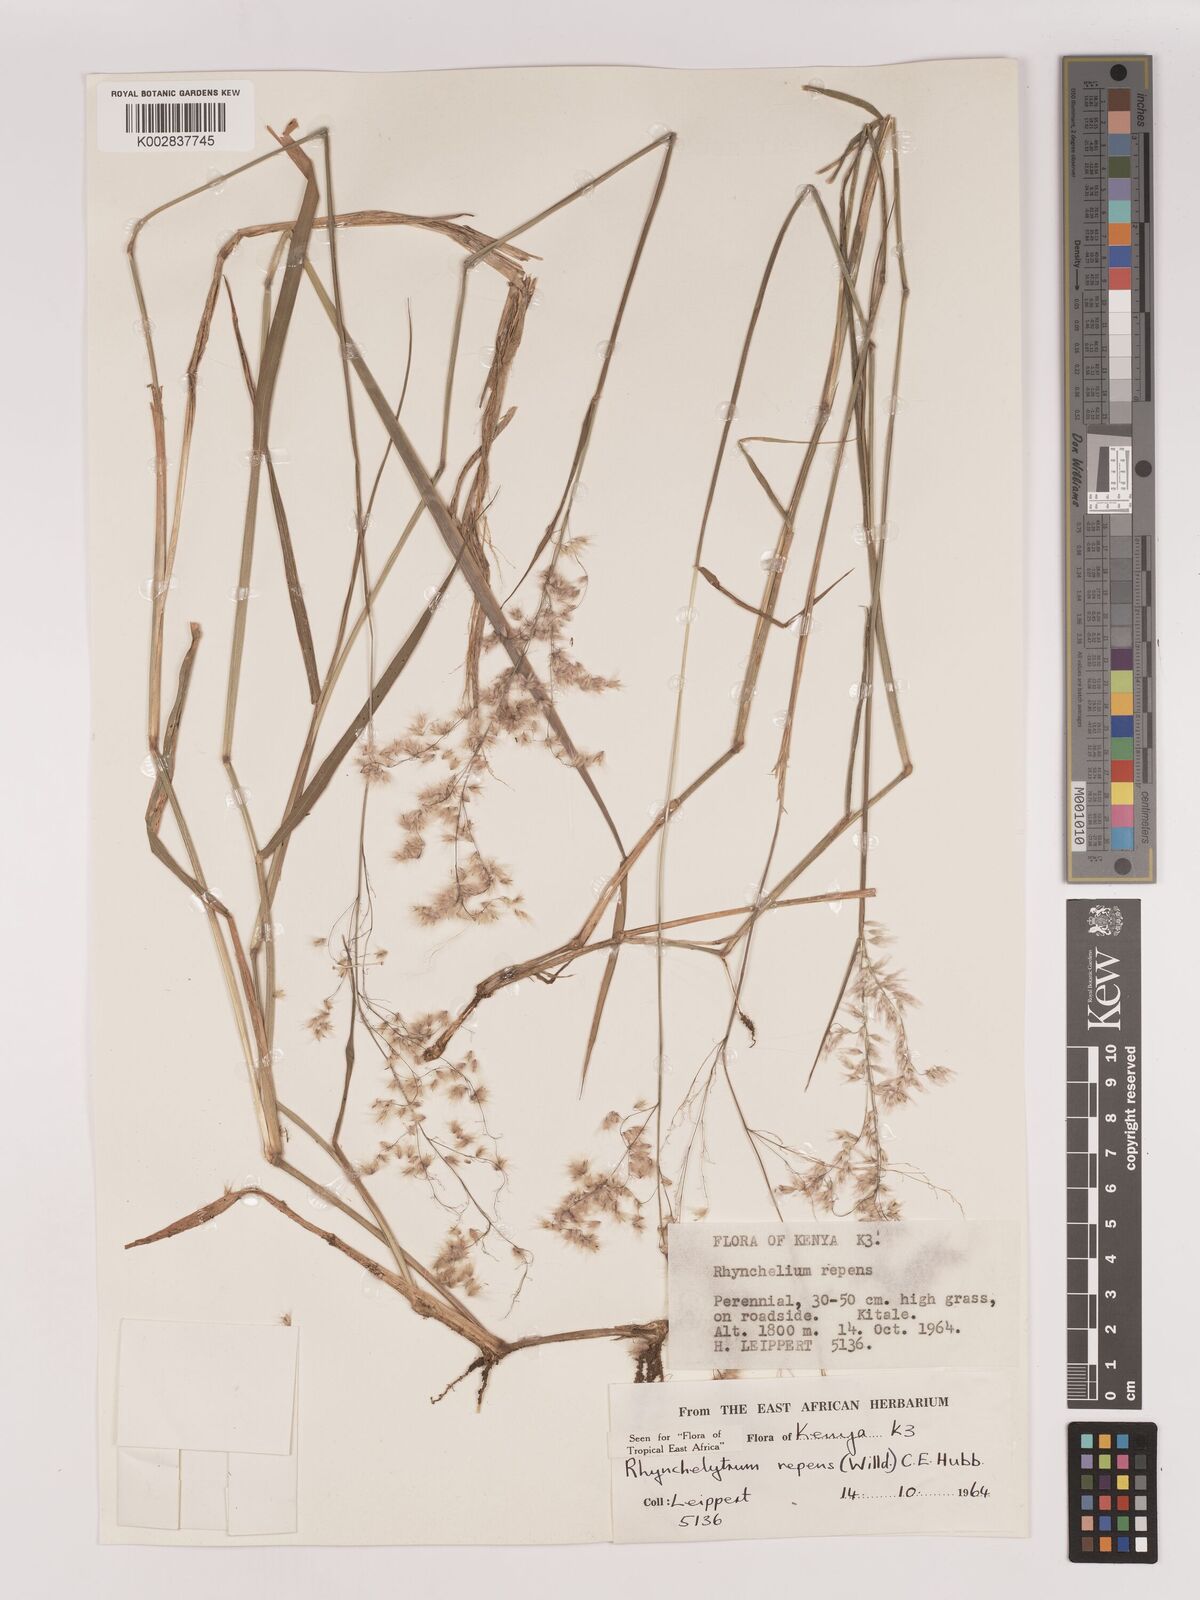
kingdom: Plantae
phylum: Tracheophyta
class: Liliopsida
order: Poales
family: Poaceae
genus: Melinis
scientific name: Melinis repens
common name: Rose natal grass
